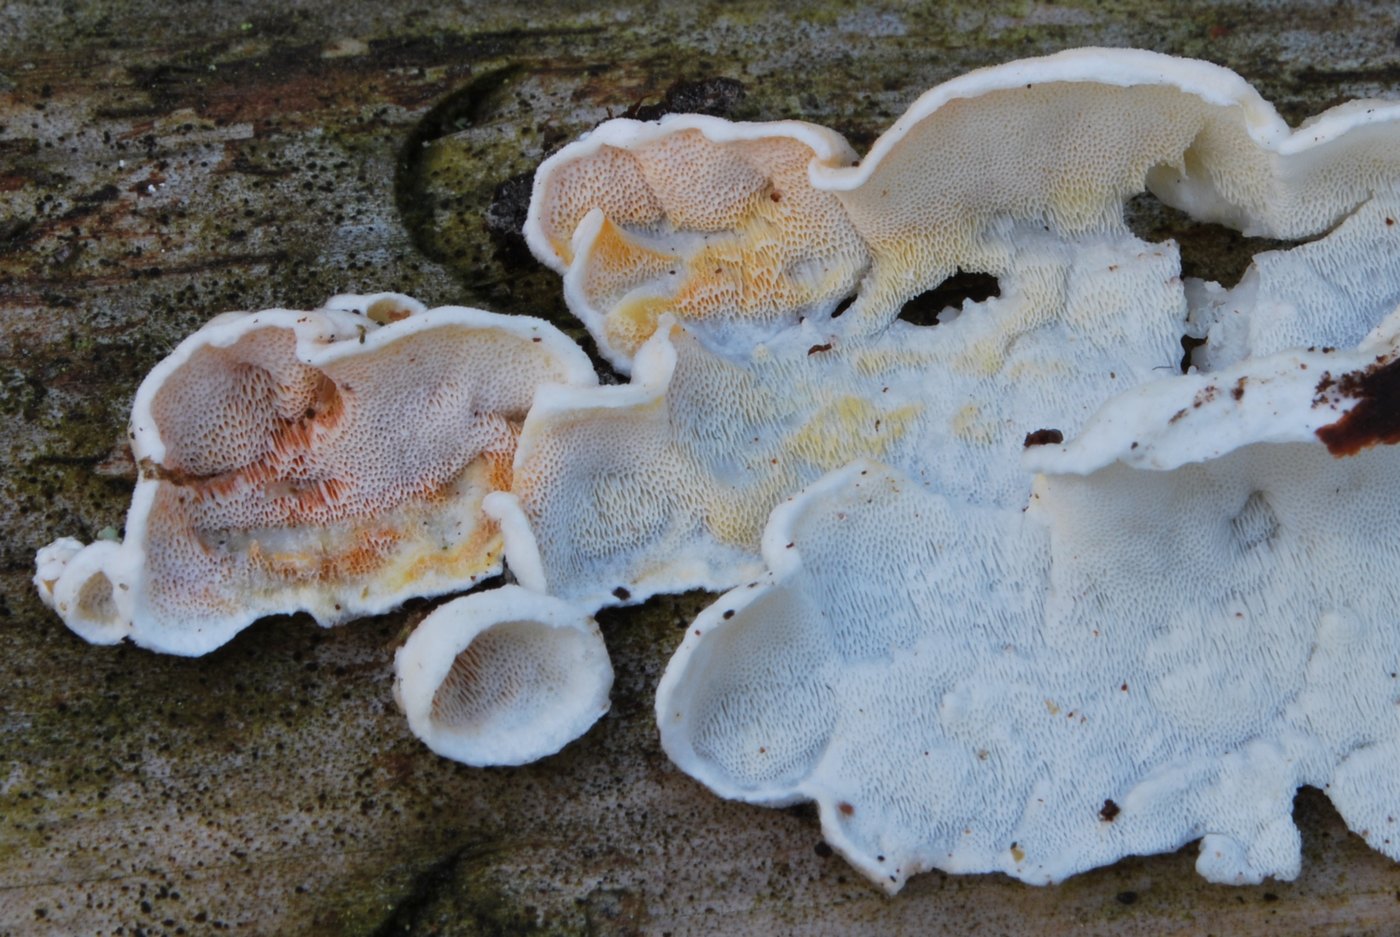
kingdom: Fungi
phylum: Basidiomycota
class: Agaricomycetes
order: Polyporales
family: Incrustoporiaceae
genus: Skeletocutis
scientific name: Skeletocutis amorpha
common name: orange krystalporesvamp
